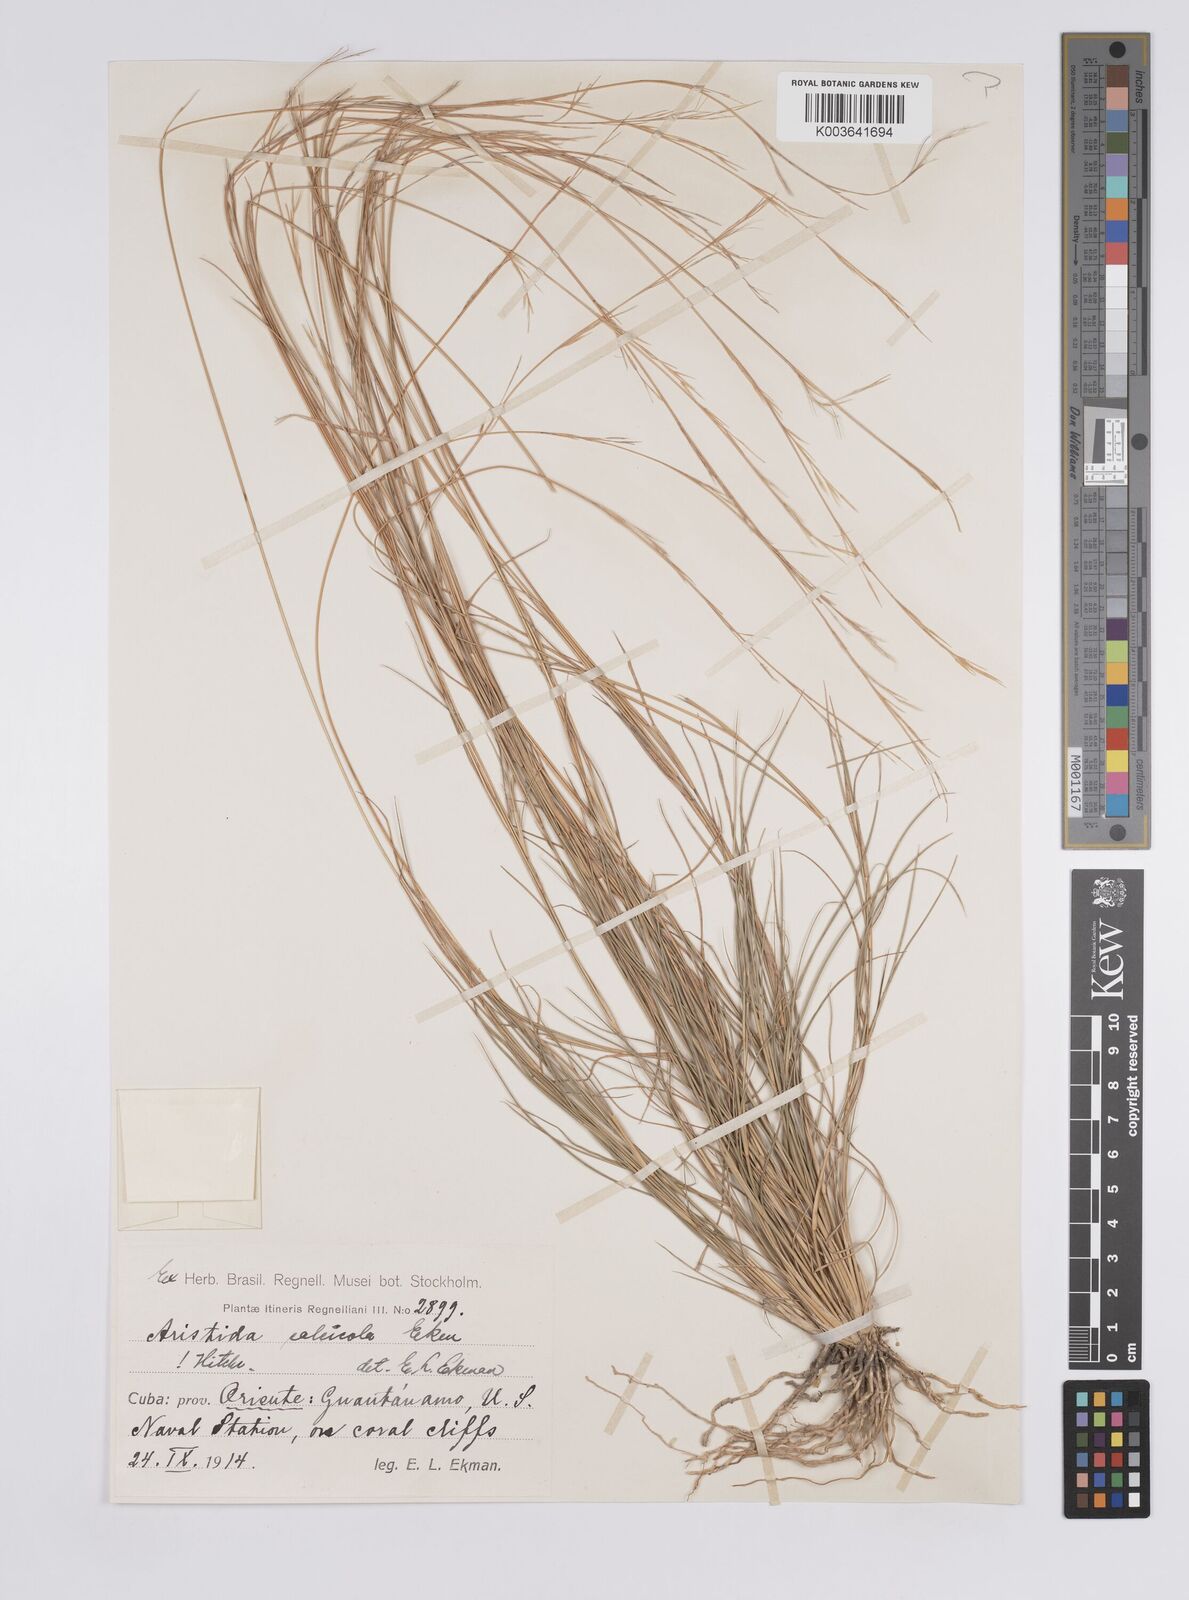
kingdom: Plantae
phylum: Tracheophyta
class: Liliopsida
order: Poales
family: Poaceae
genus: Aristida
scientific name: Aristida calcicola
